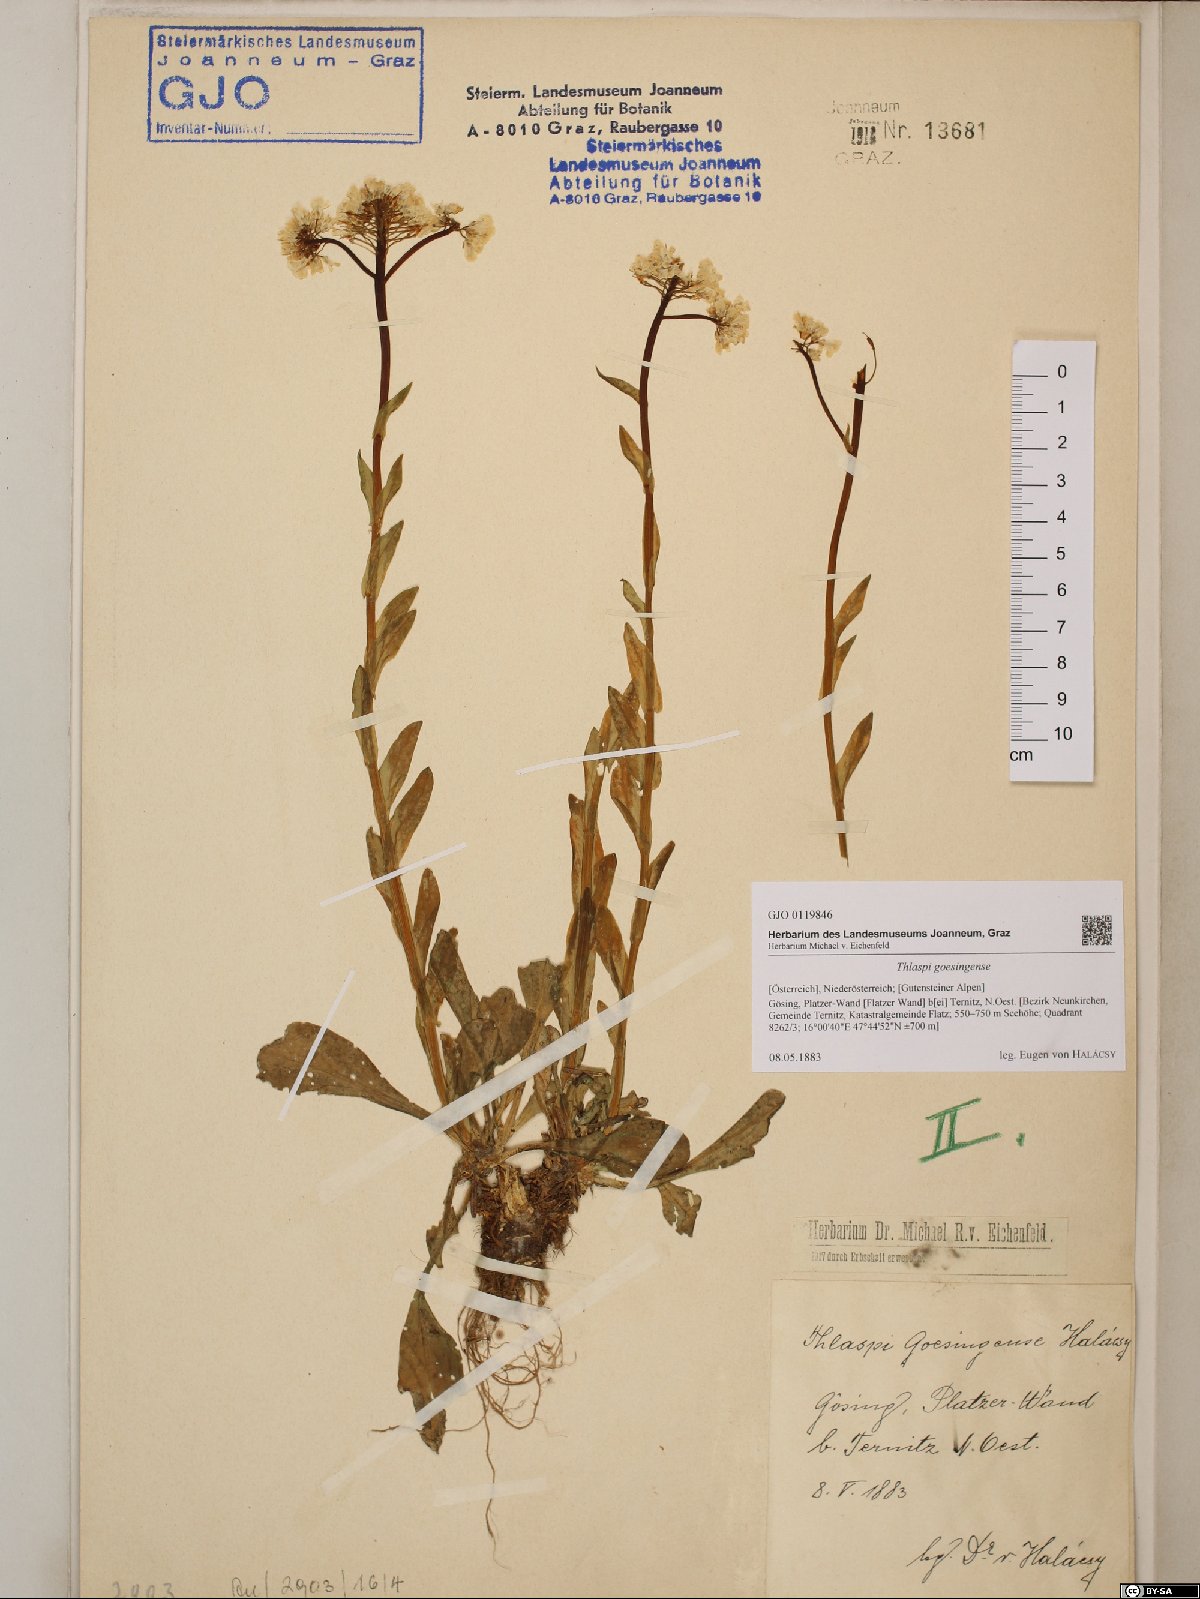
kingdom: Plantae
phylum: Tracheophyta
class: Magnoliopsida
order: Brassicales
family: Brassicaceae
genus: Noccaea
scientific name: Noccaea goesingensis
